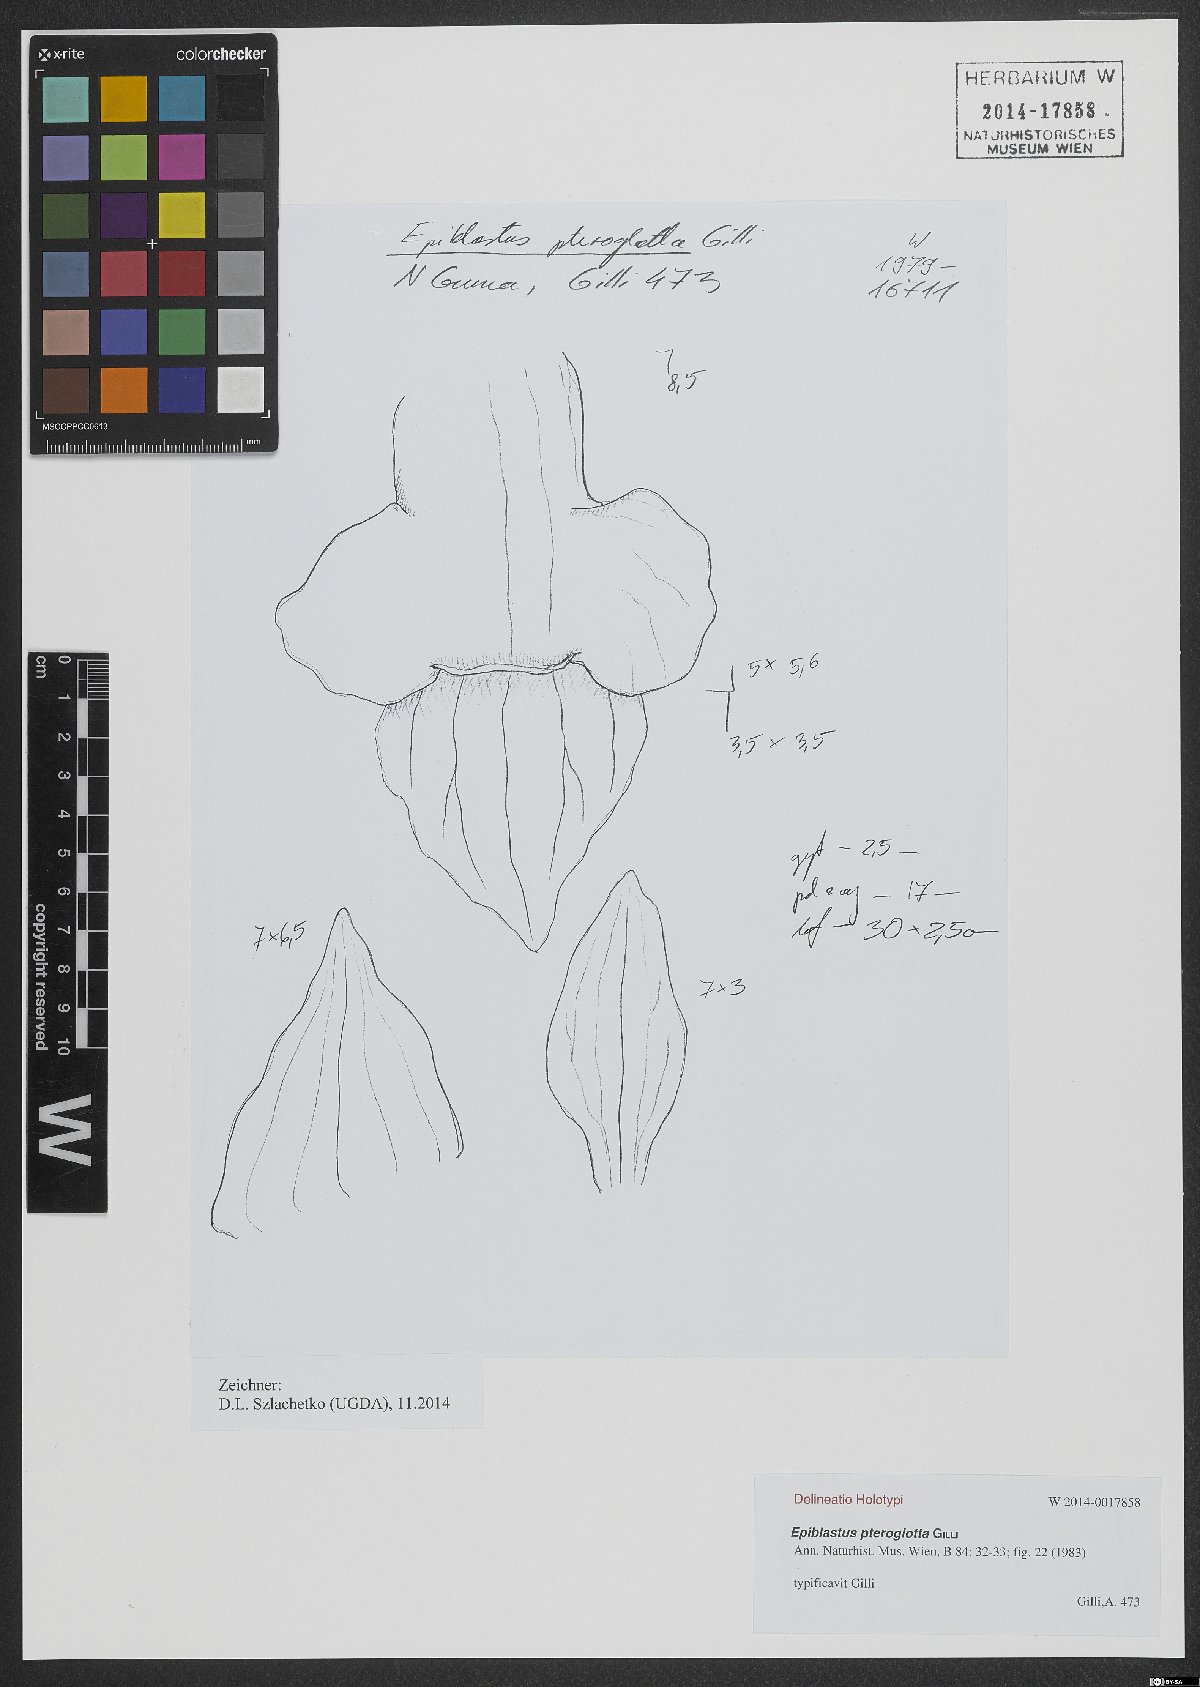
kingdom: Plantae
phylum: Tracheophyta
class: Liliopsida
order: Asparagales
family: Orchidaceae
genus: Epiblastus
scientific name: Epiblastus pteroglotta
